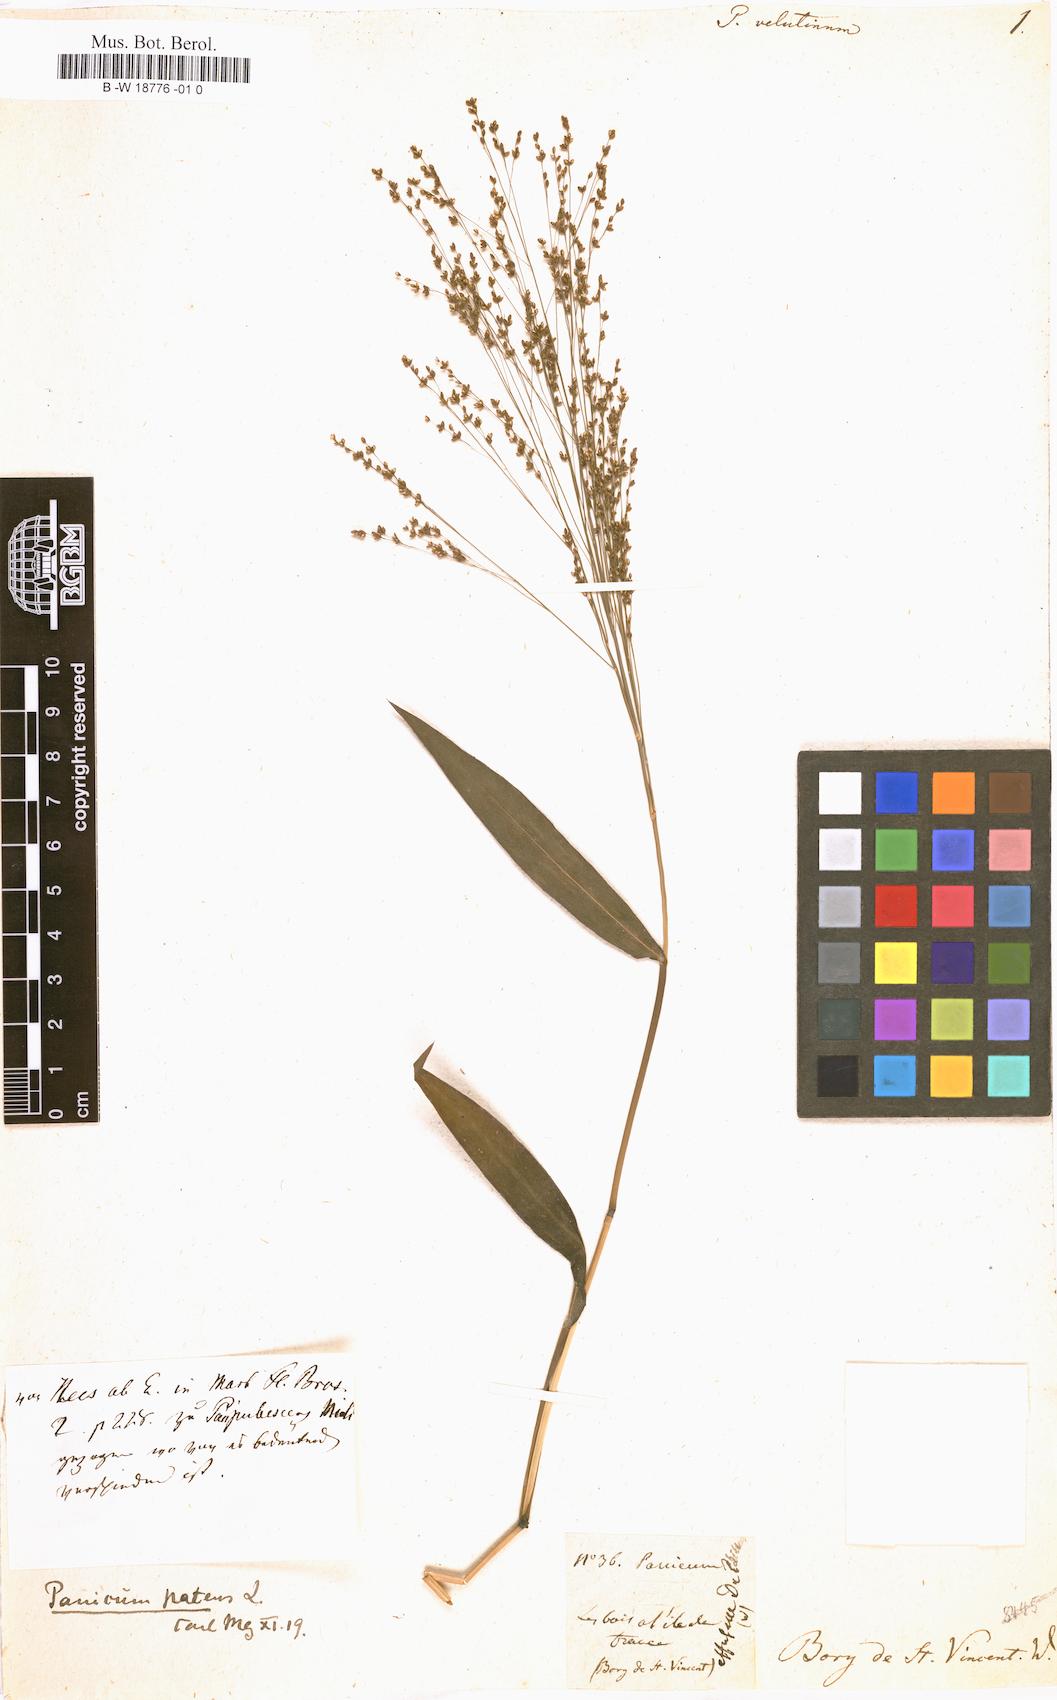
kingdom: Plantae
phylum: Tracheophyta
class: Liliopsida
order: Poales
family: Poaceae
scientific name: Poaceae
